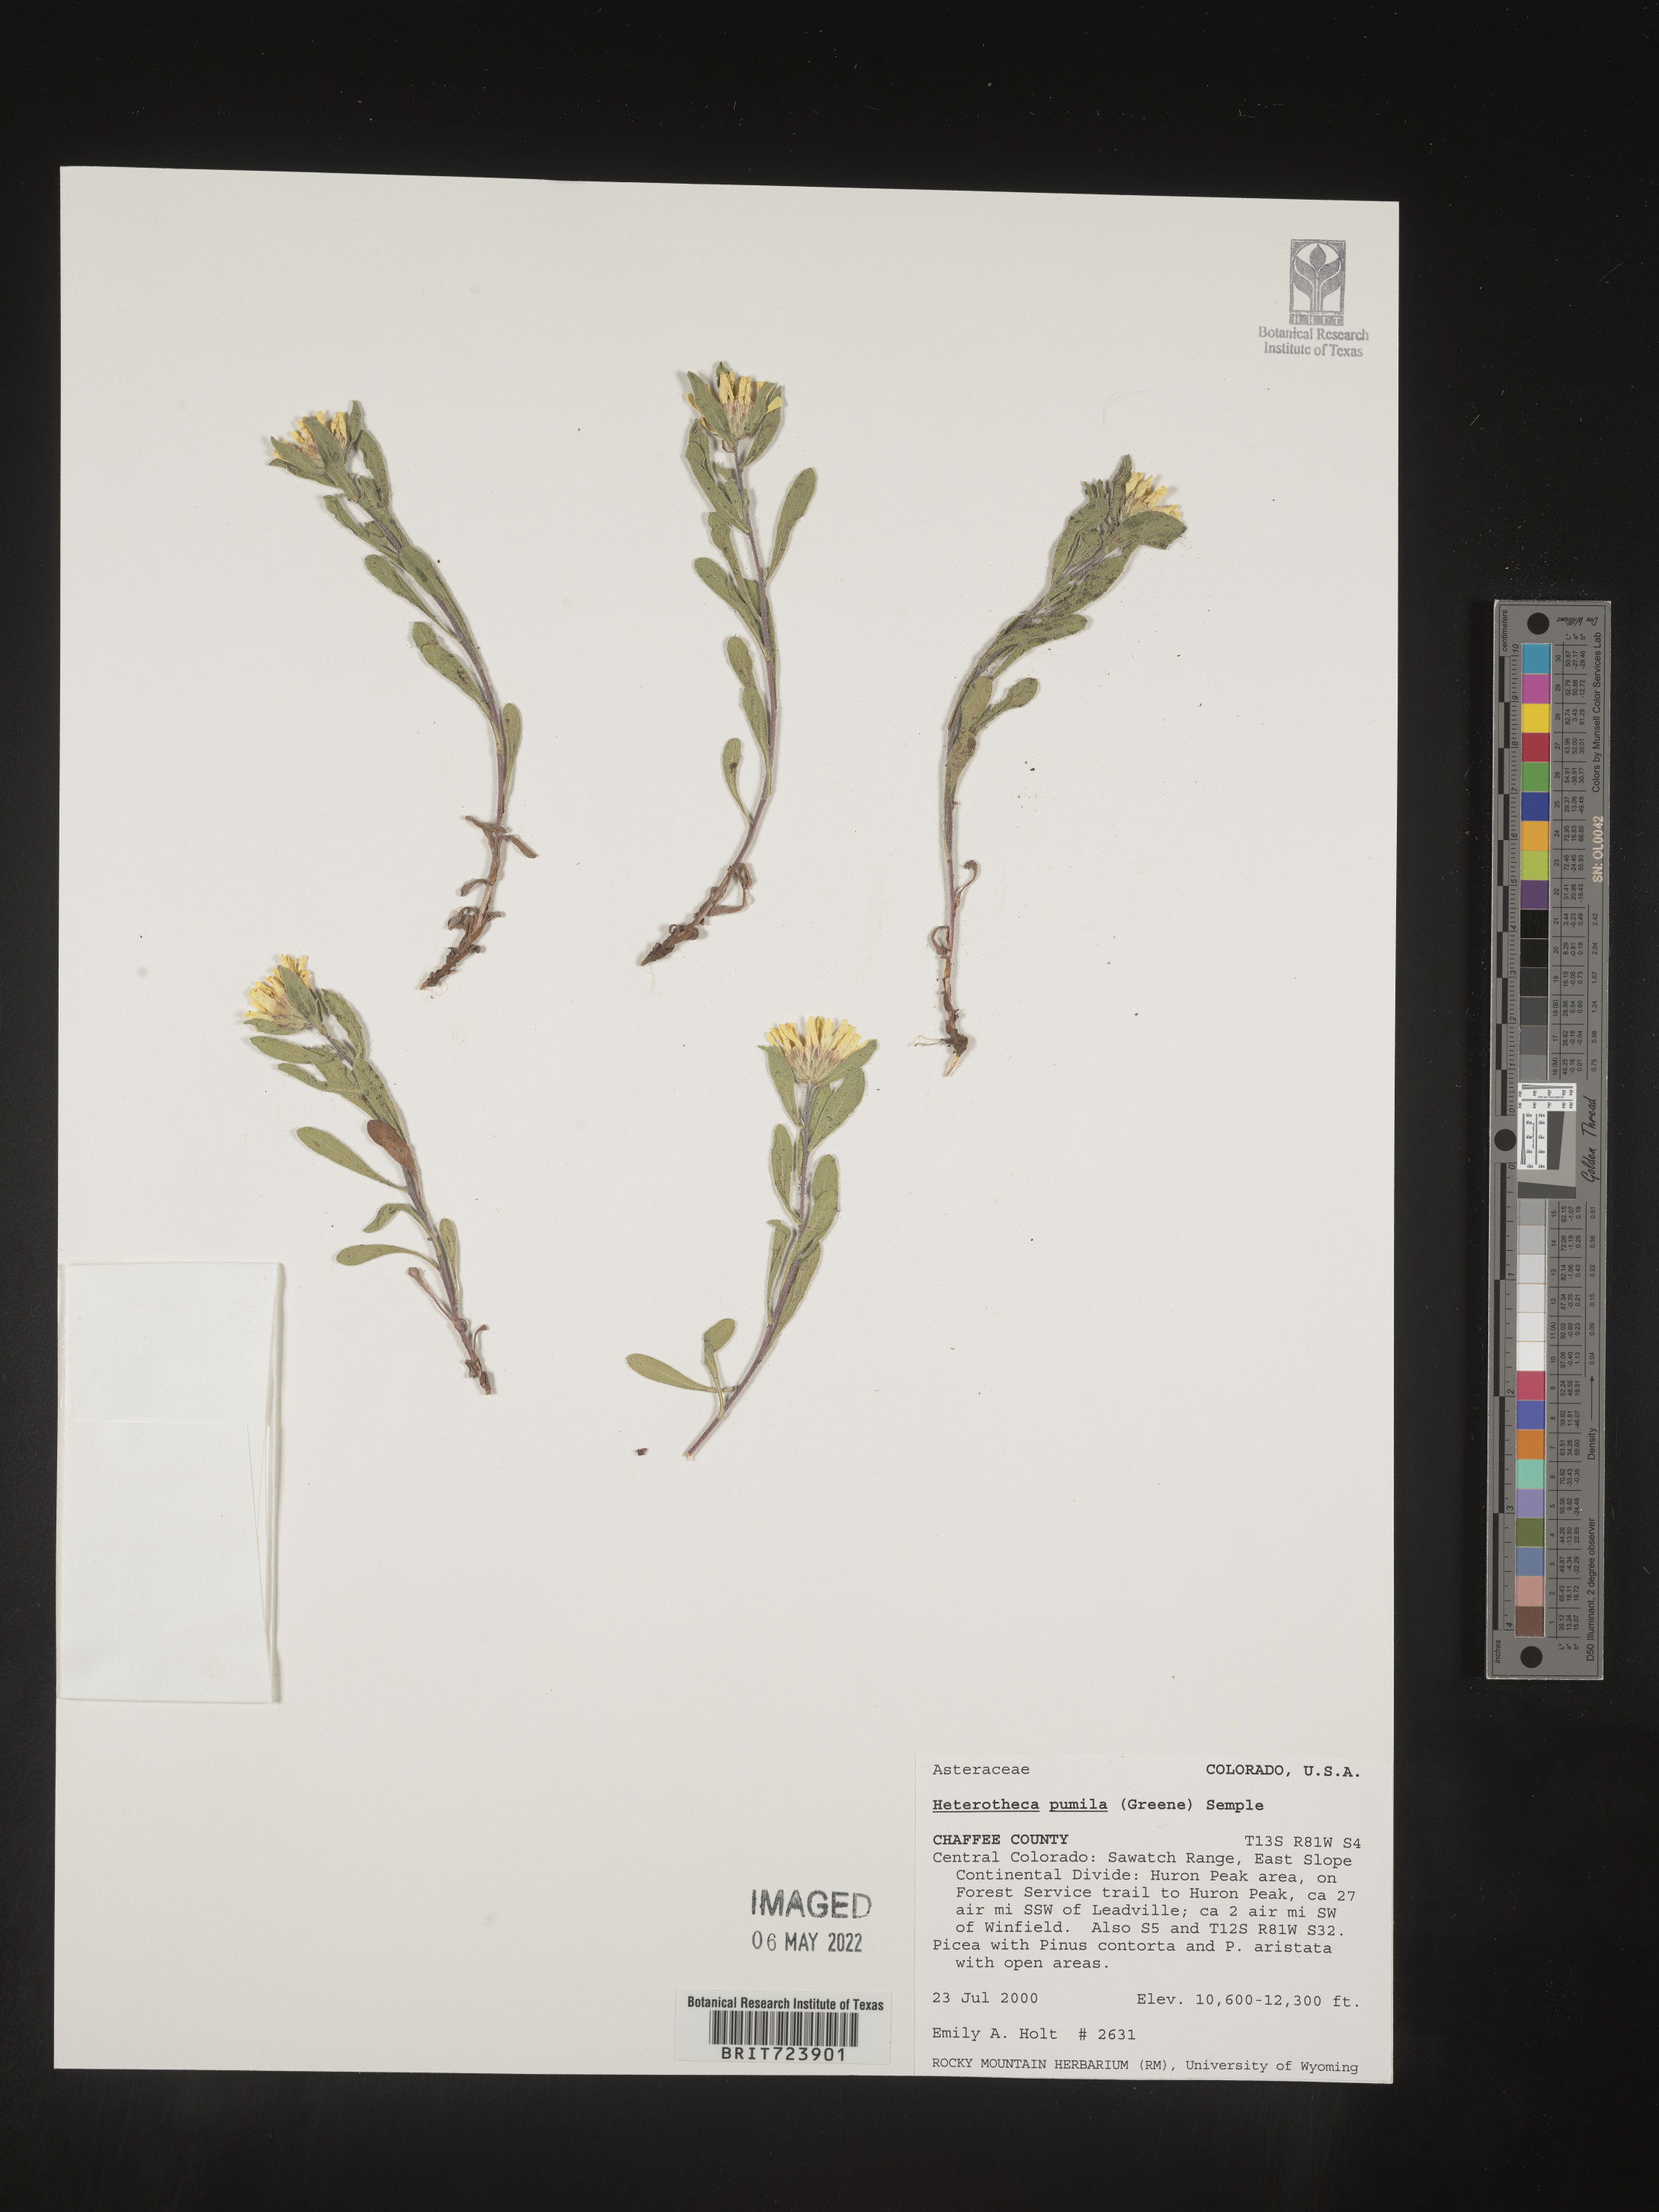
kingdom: Plantae
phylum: Tracheophyta
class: Magnoliopsida
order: Asterales
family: Asteraceae
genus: Heterotheca
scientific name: Heterotheca pumila
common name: Alpine golden-aster
